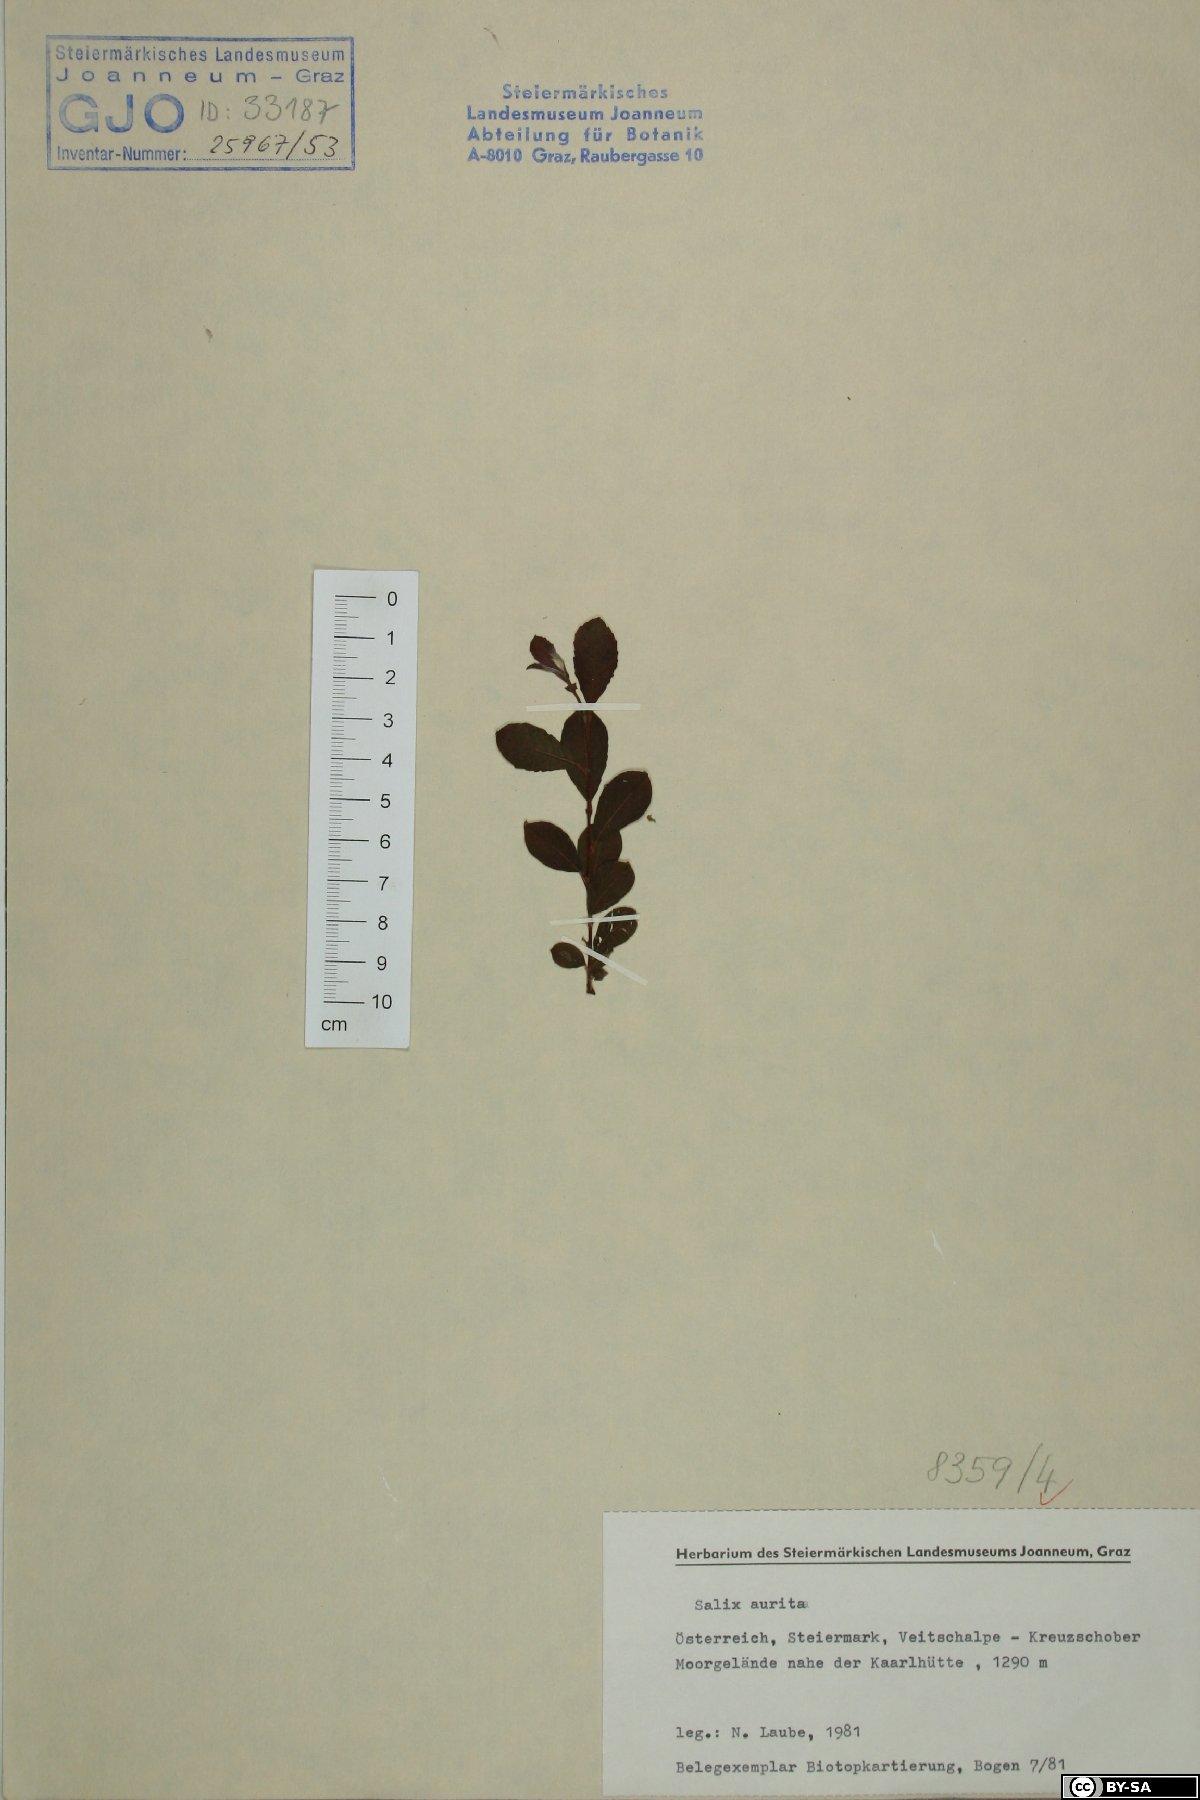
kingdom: Plantae
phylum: Tracheophyta
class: Magnoliopsida
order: Malpighiales
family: Salicaceae
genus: Salix
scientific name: Salix aurita
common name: Eared willow
